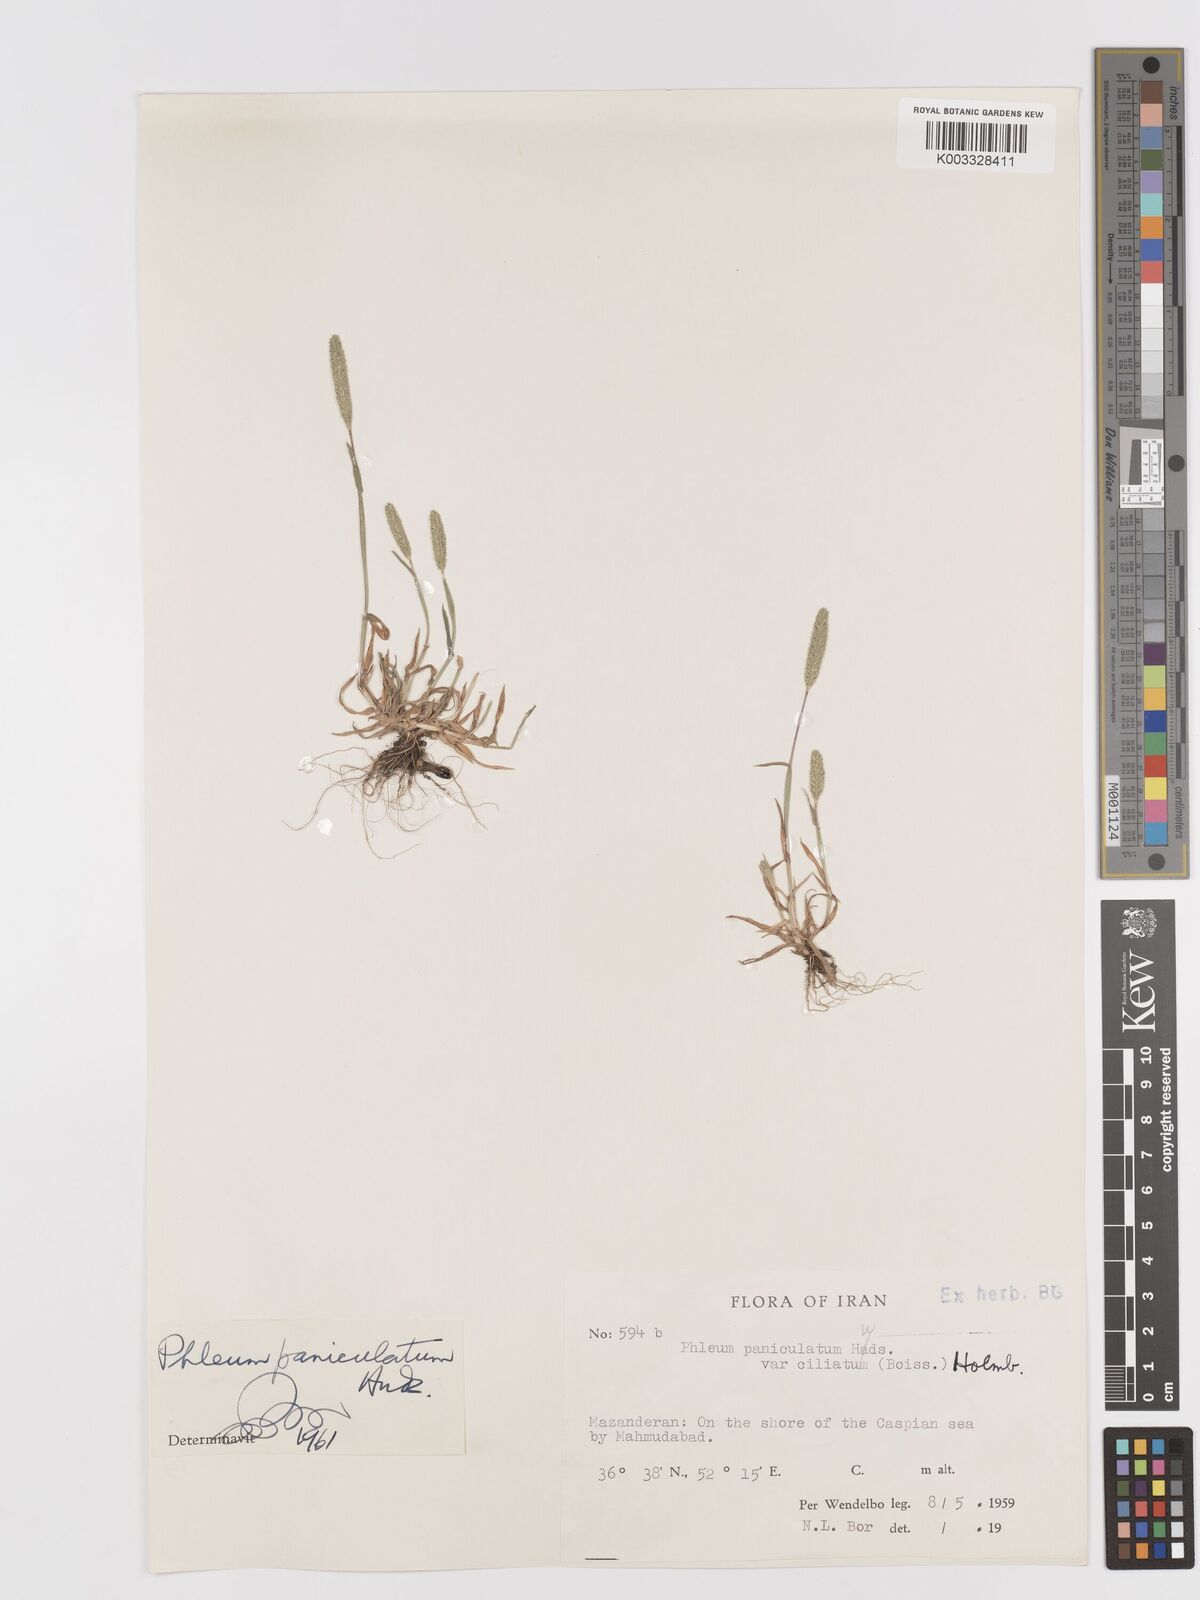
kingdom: Plantae
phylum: Tracheophyta
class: Liliopsida
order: Poales
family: Poaceae
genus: Phleum
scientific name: Phleum paniculatum
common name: British timothy
